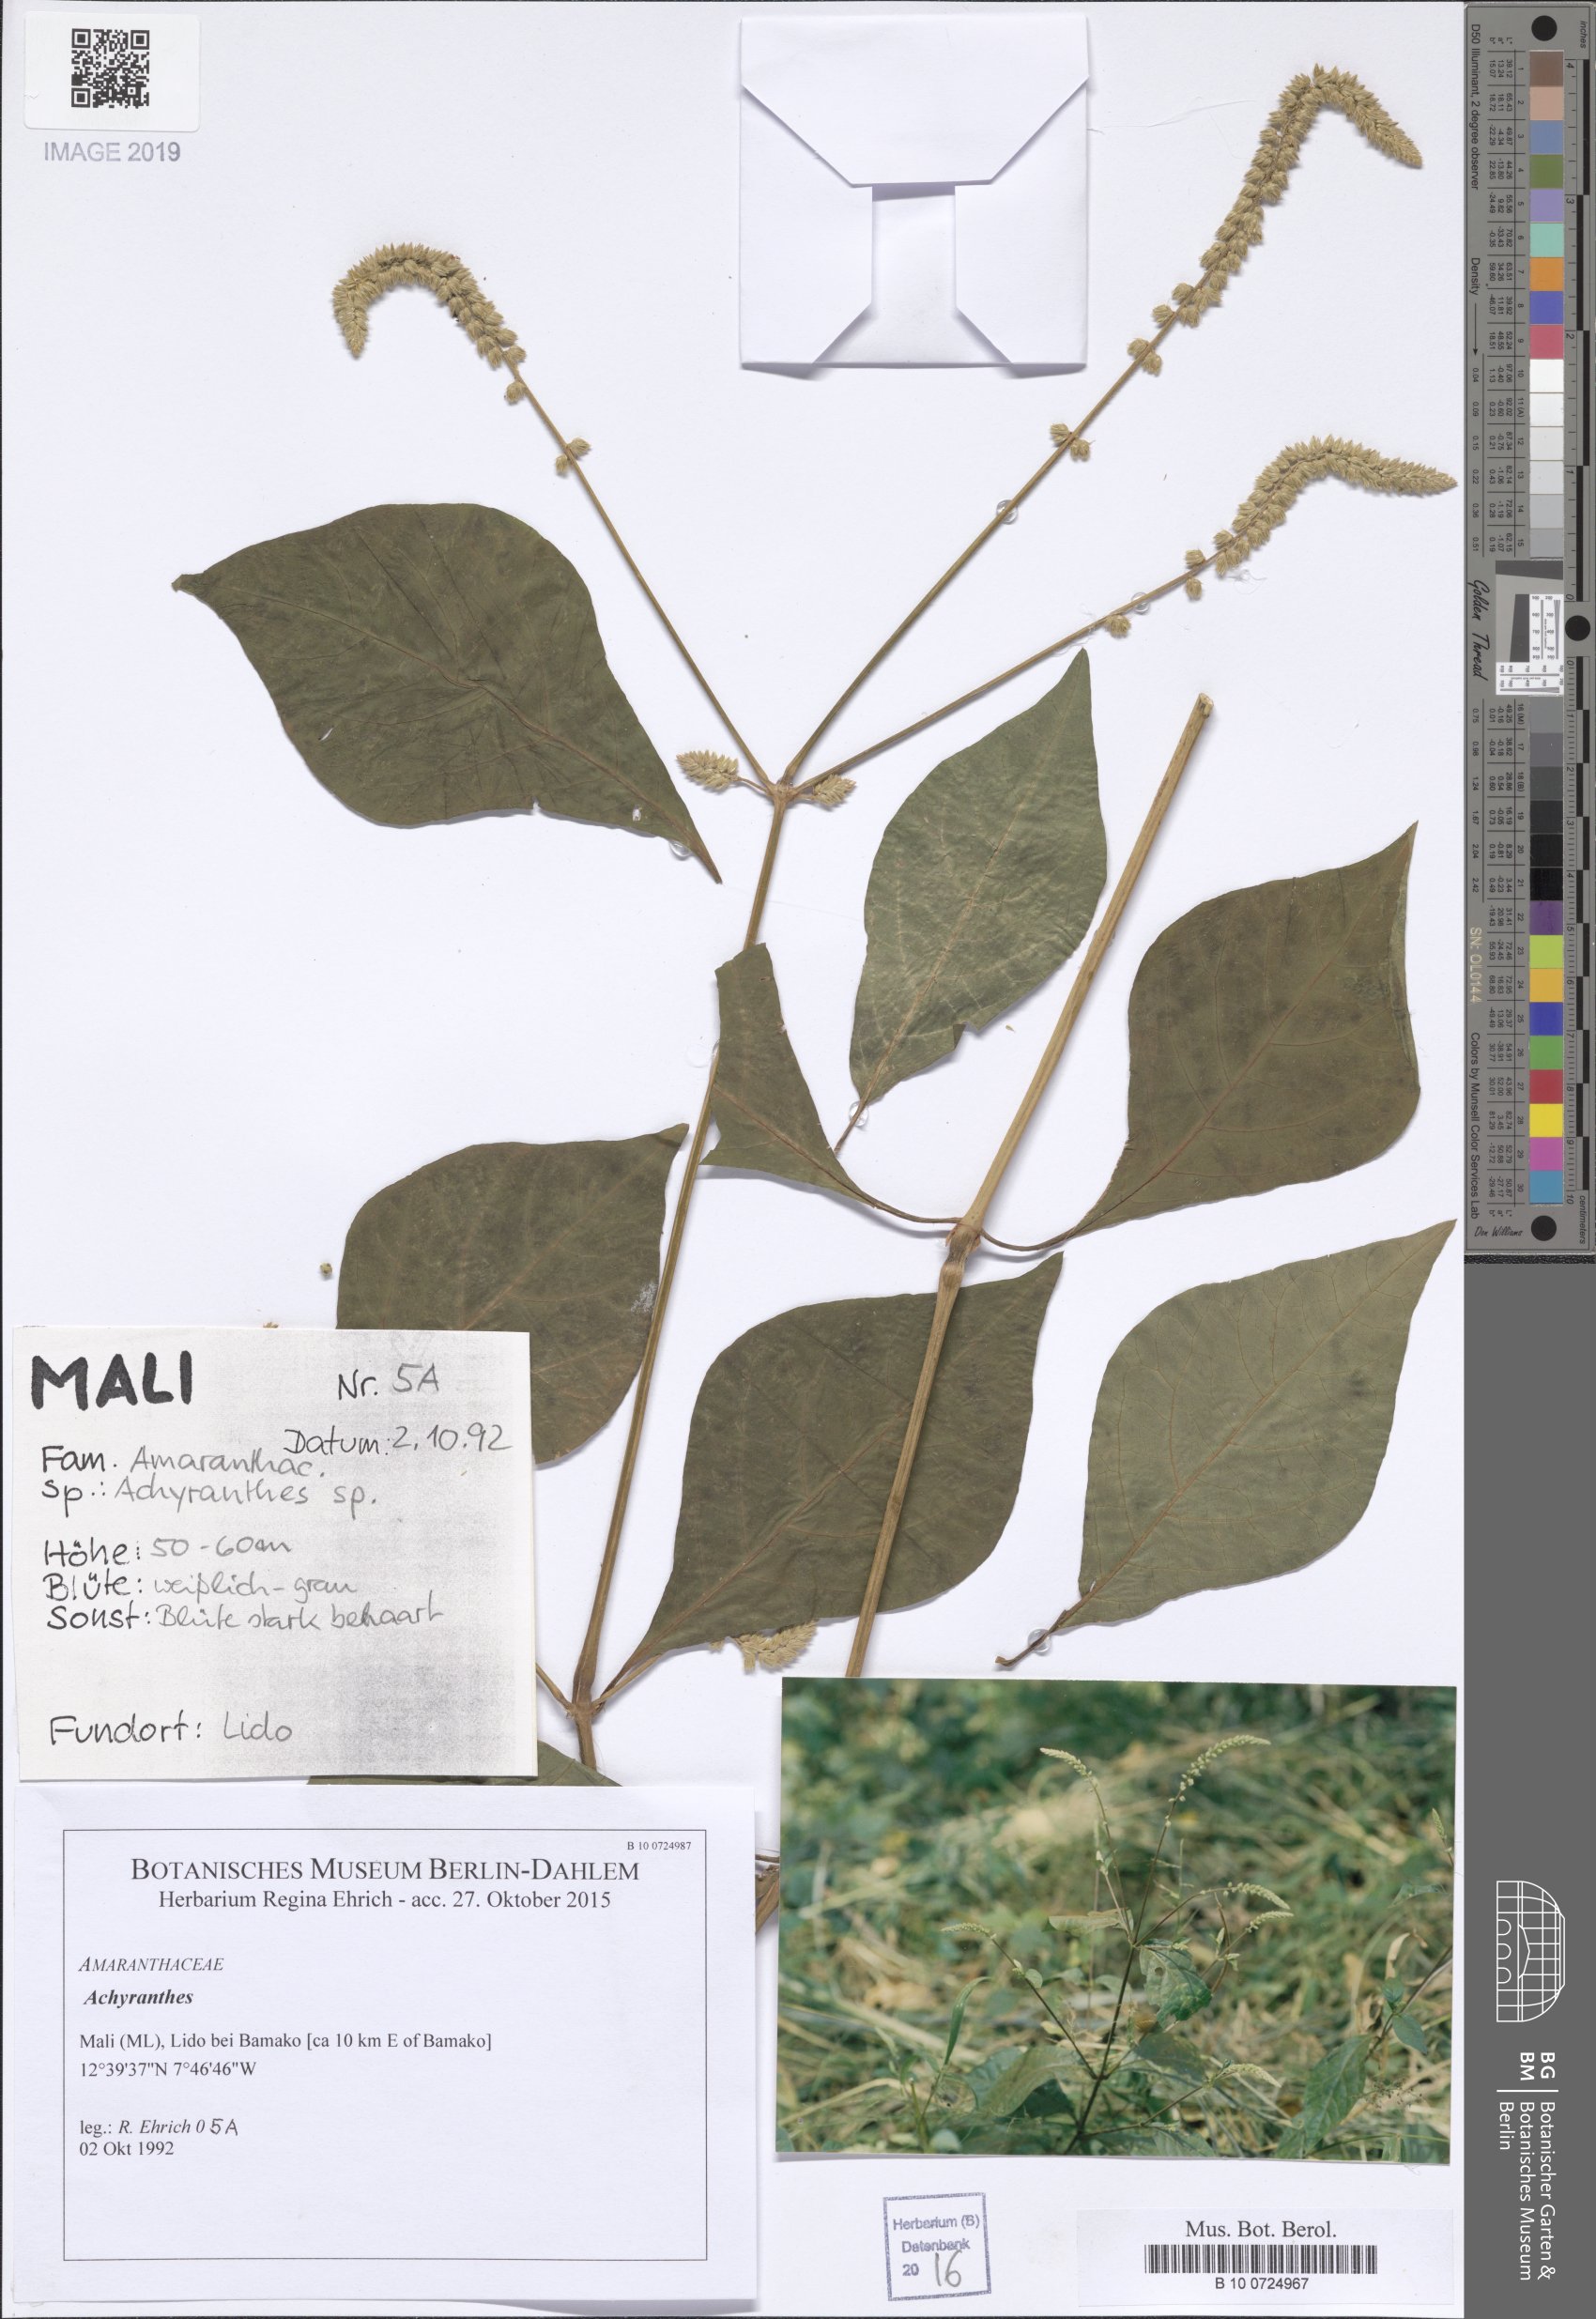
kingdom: Plantae
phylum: Tracheophyta
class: Magnoliopsida
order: Solanales
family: Hydroleaceae
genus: Hydrolea
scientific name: Hydrolea macrosepala
